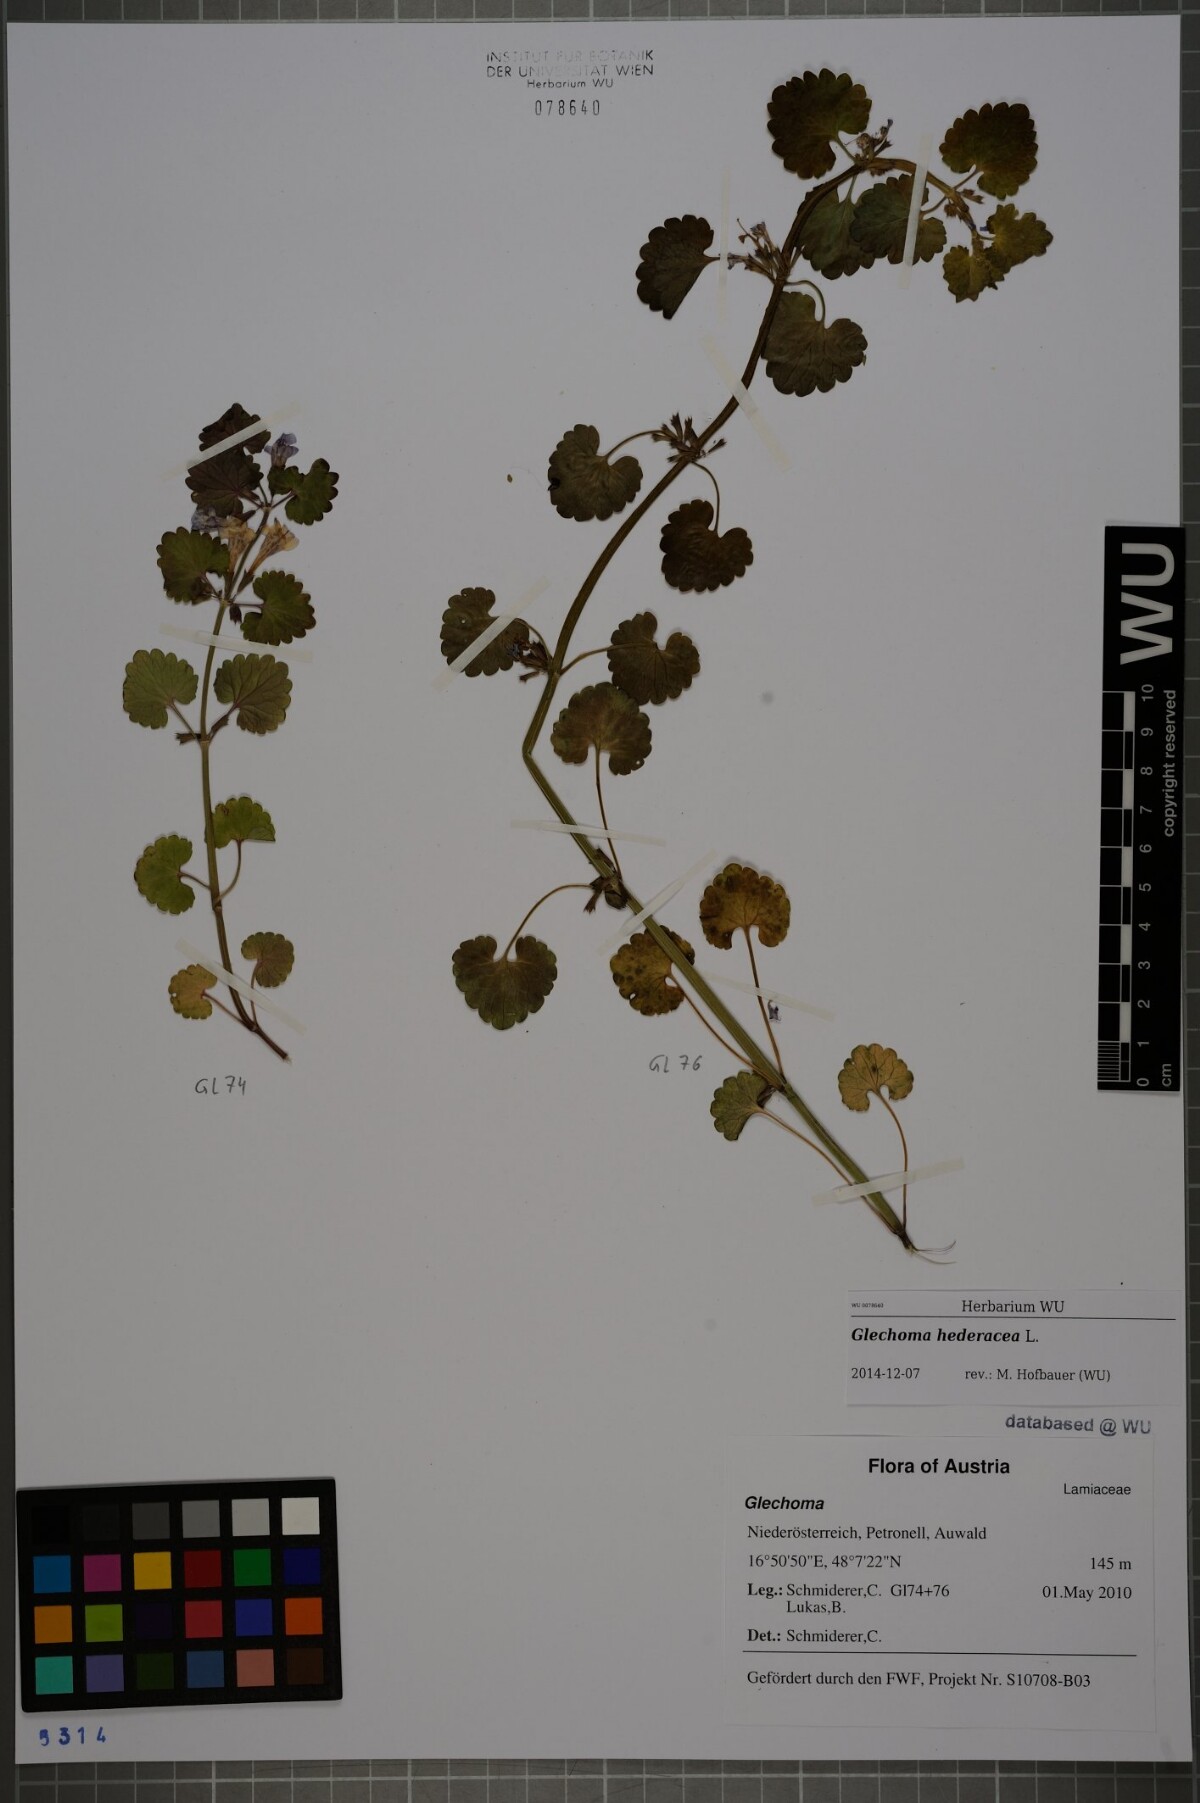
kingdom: Plantae
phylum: Tracheophyta
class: Magnoliopsida
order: Lamiales
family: Lamiaceae
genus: Glechoma
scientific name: Glechoma hederacea
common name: Ground ivy
